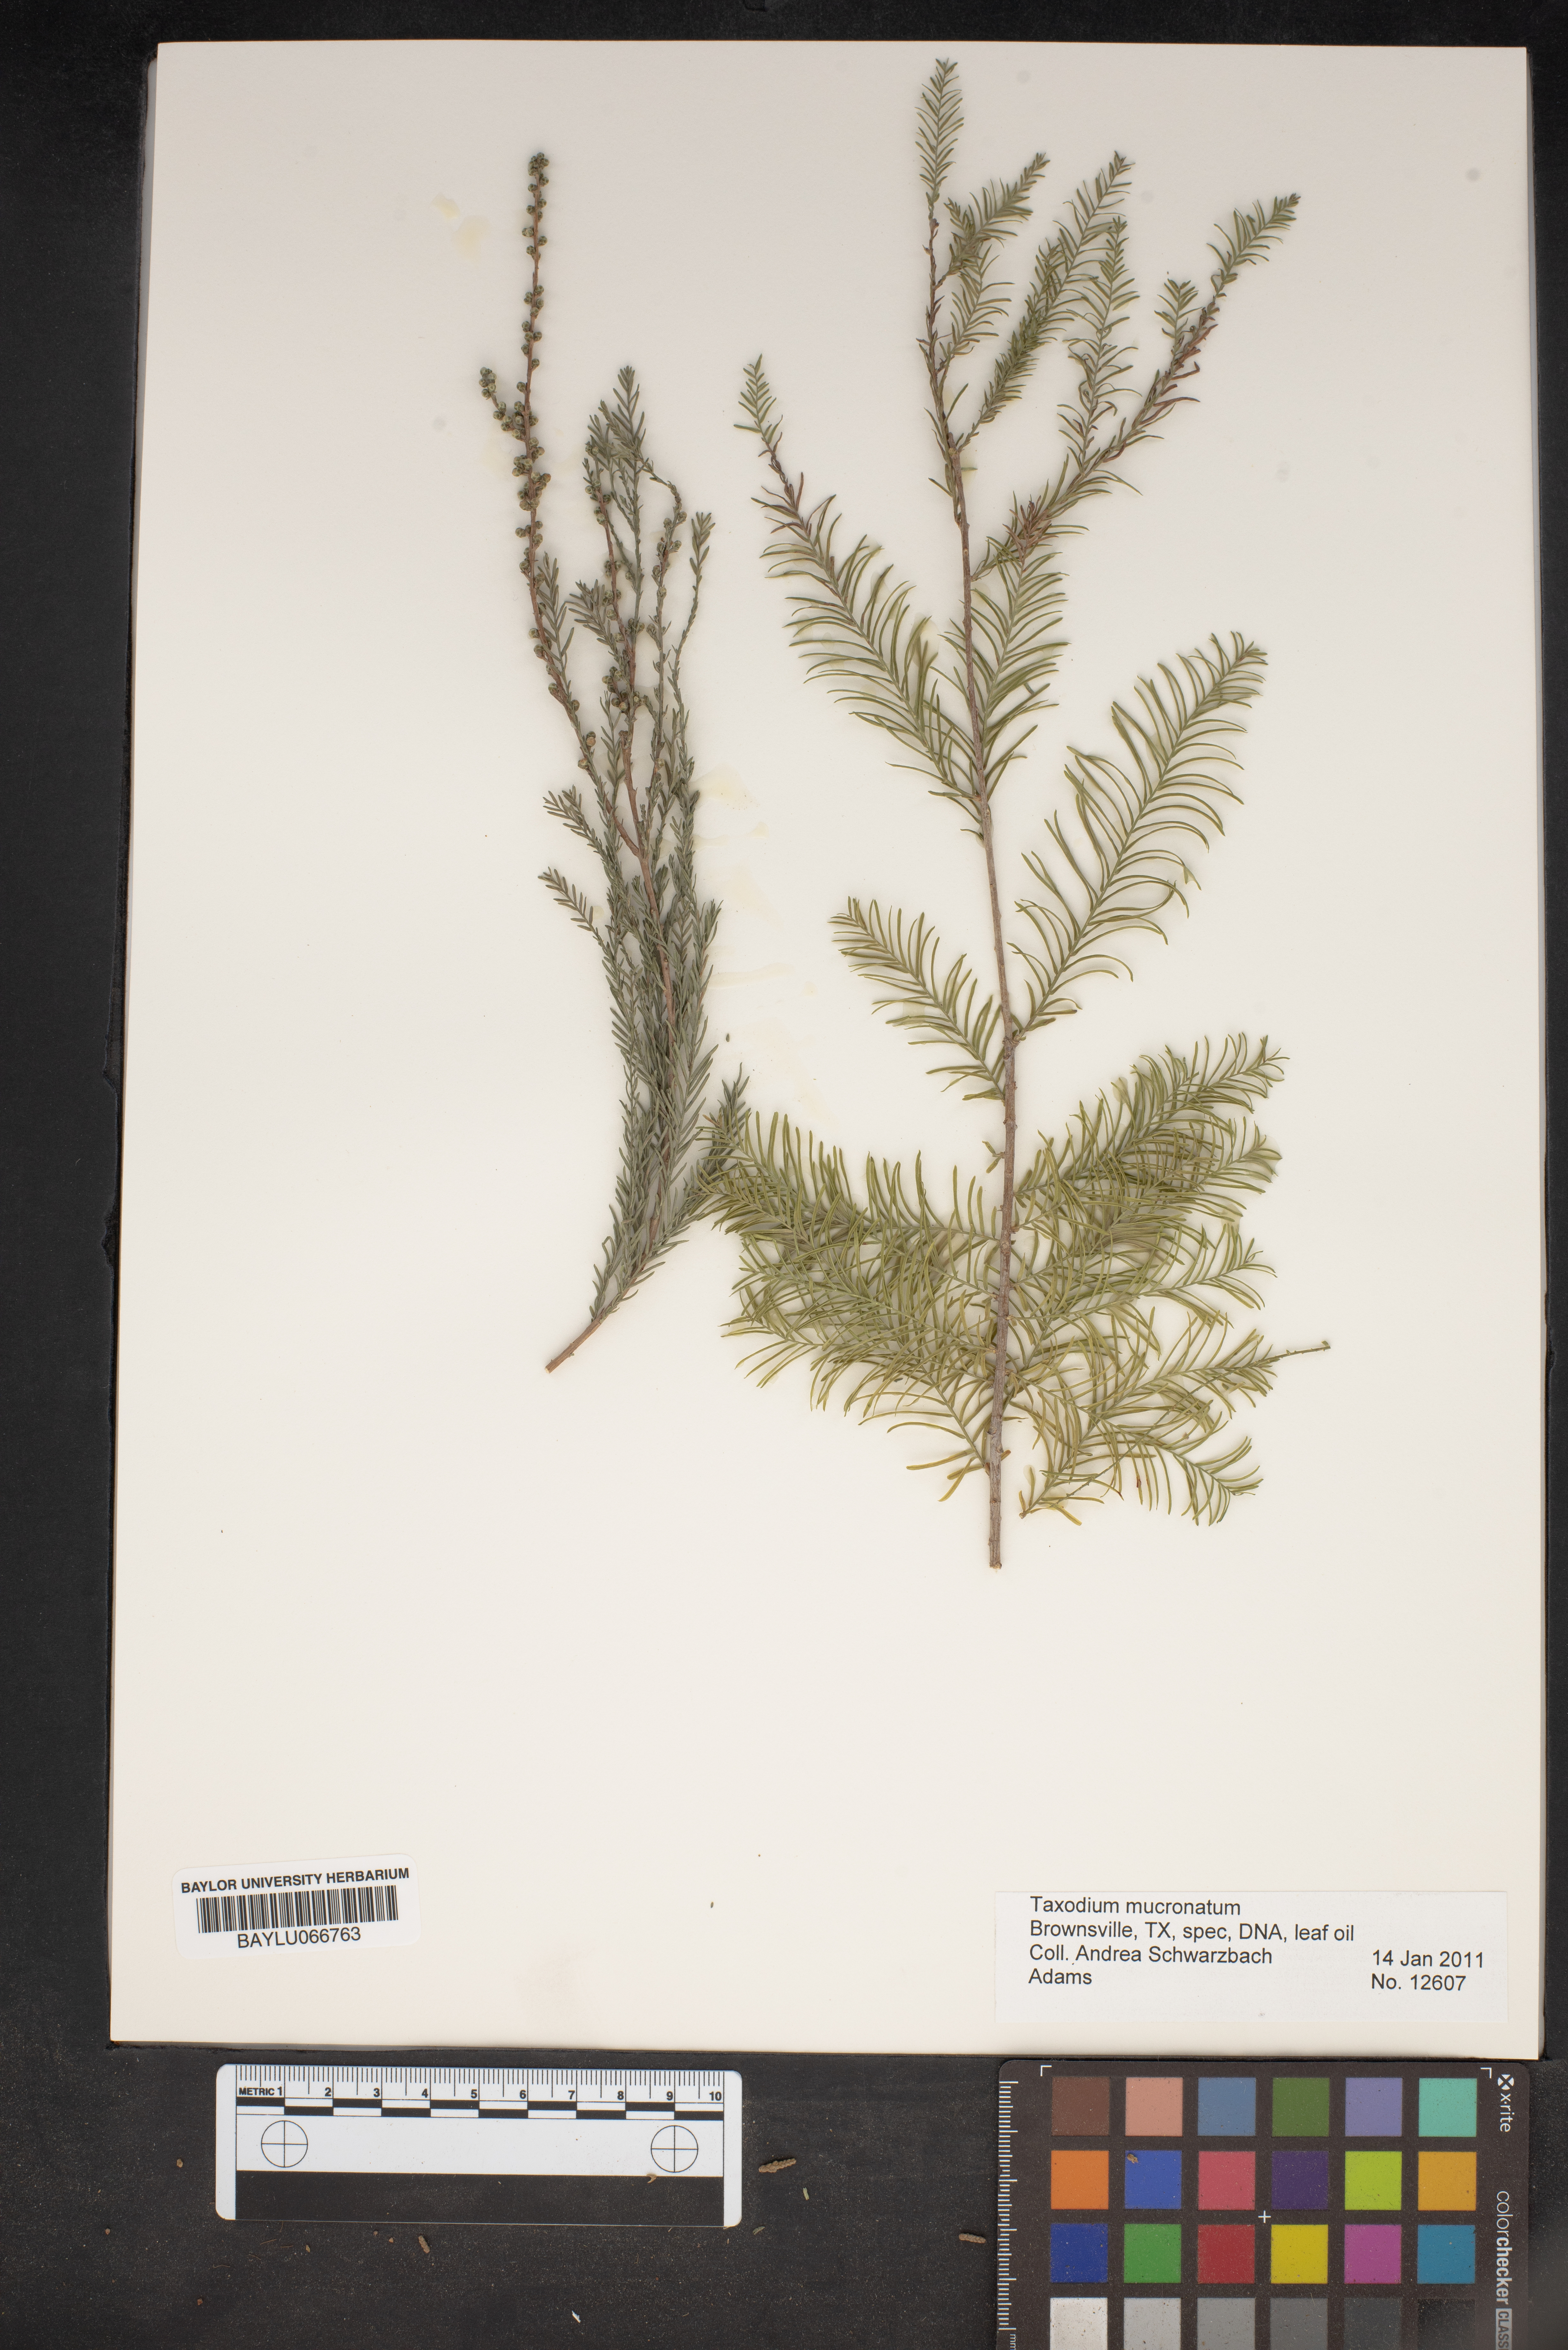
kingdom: Plantae
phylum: Tracheophyta
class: Pinopsida
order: Pinales
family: Cupressaceae
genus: Taxodium
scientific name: Taxodium mucronatum
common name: Montezume bald cypress
